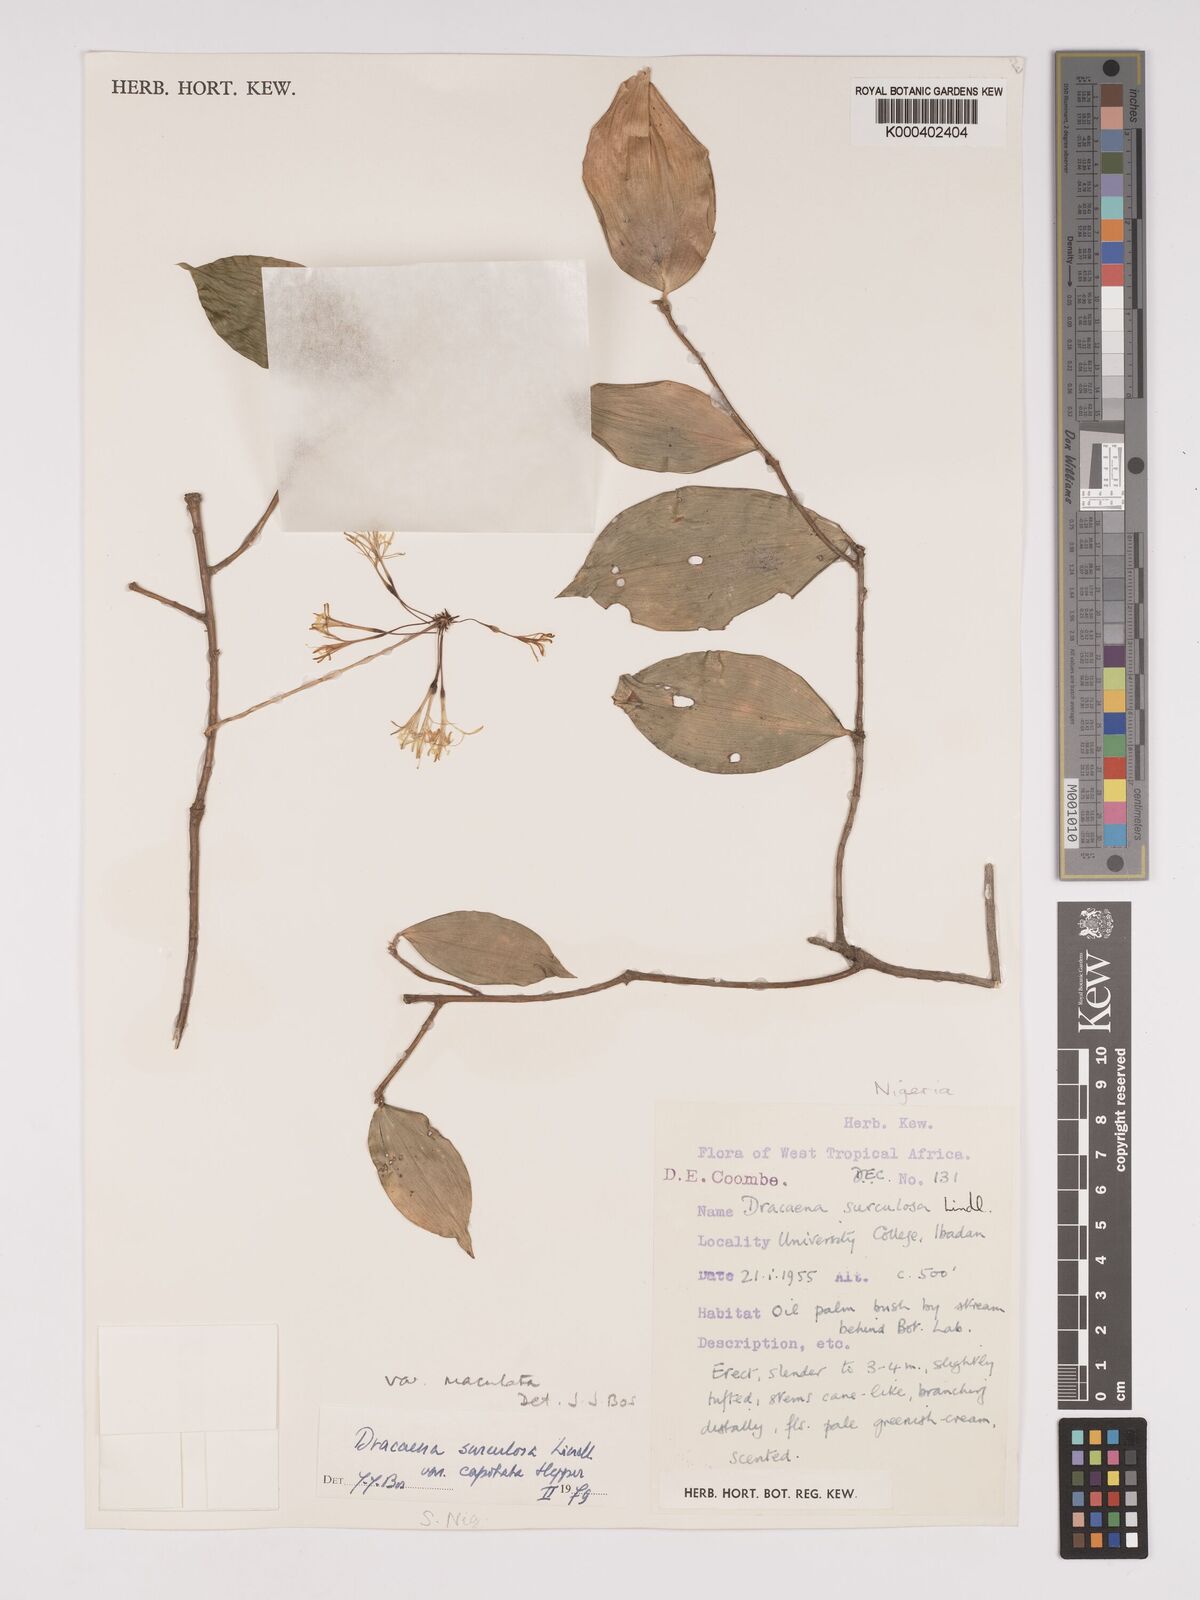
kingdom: Plantae
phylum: Tracheophyta
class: Liliopsida
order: Asparagales
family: Asparagaceae
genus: Dracaena
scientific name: Dracaena surculosa
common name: Spotted dracaena
